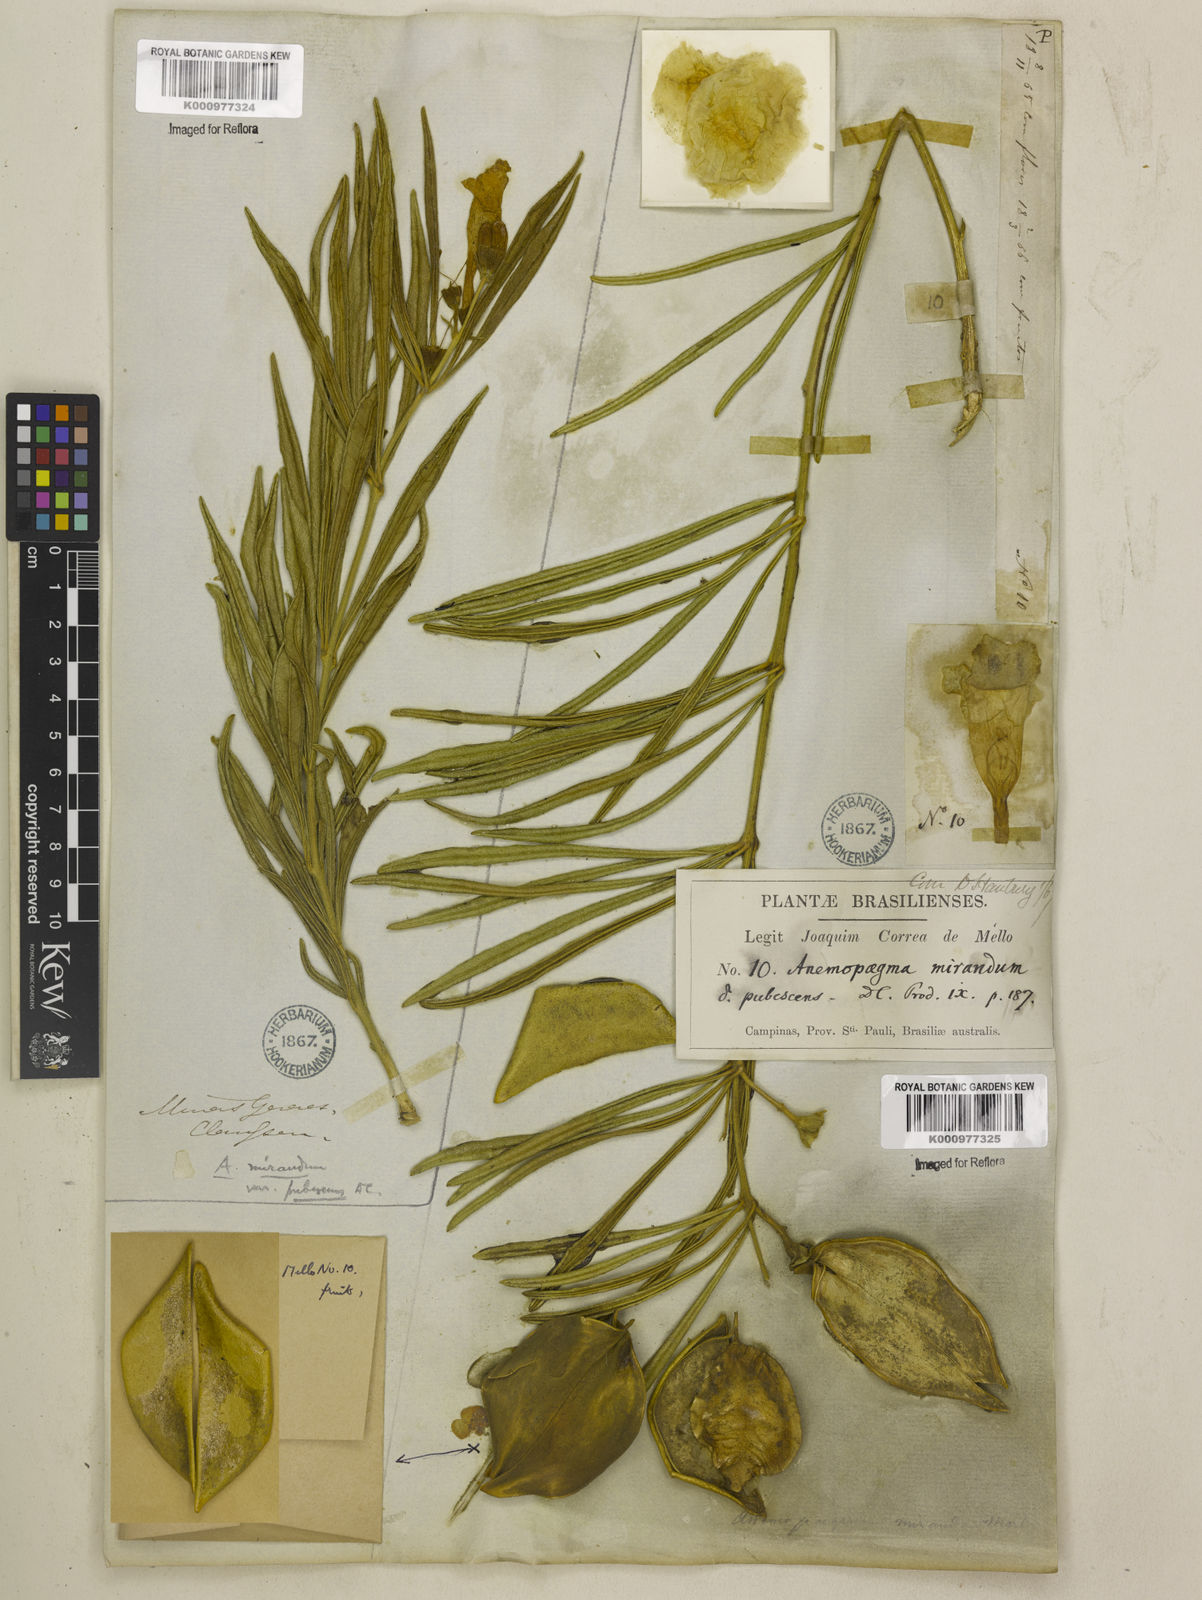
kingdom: Plantae
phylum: Tracheophyta
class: Magnoliopsida
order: Lamiales
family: Bignoniaceae
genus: Anemopaegma
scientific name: Anemopaegma arvense
